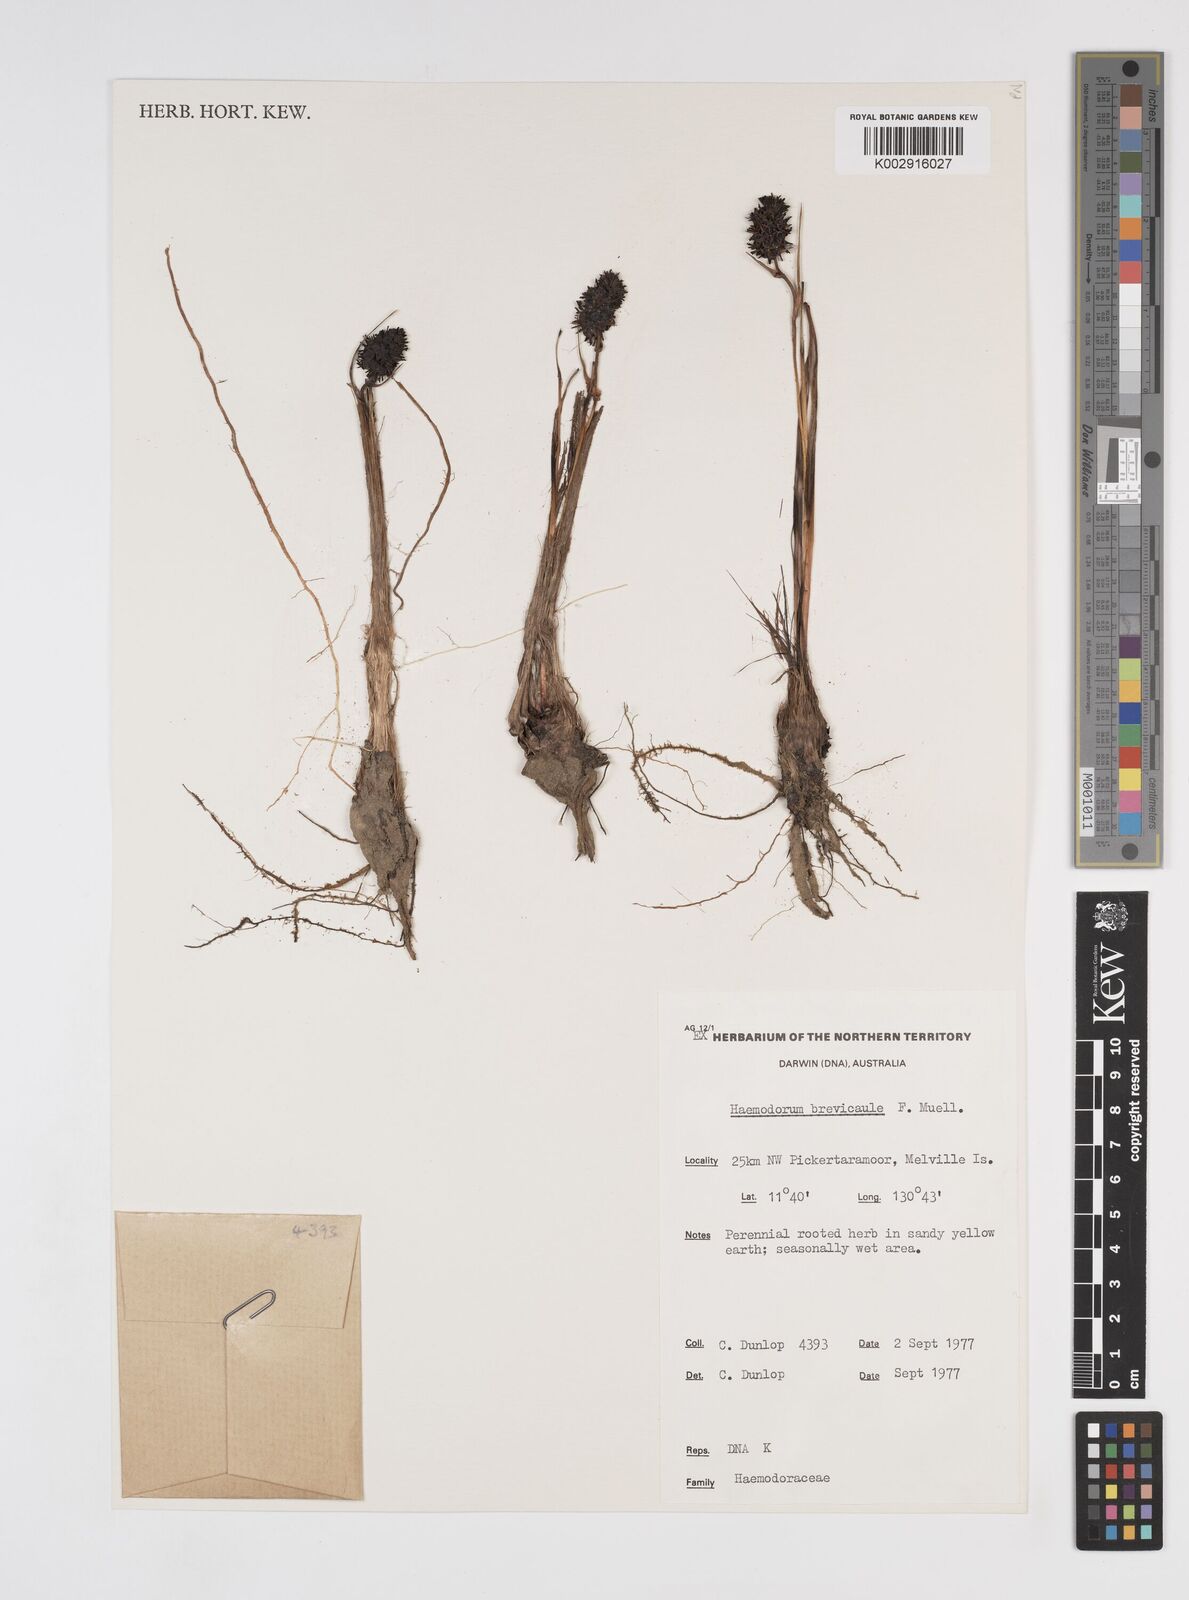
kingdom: Plantae
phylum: Tracheophyta
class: Liliopsida
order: Commelinales
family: Haemodoraceae
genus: Haemodorum
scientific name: Haemodorum brevicaule
